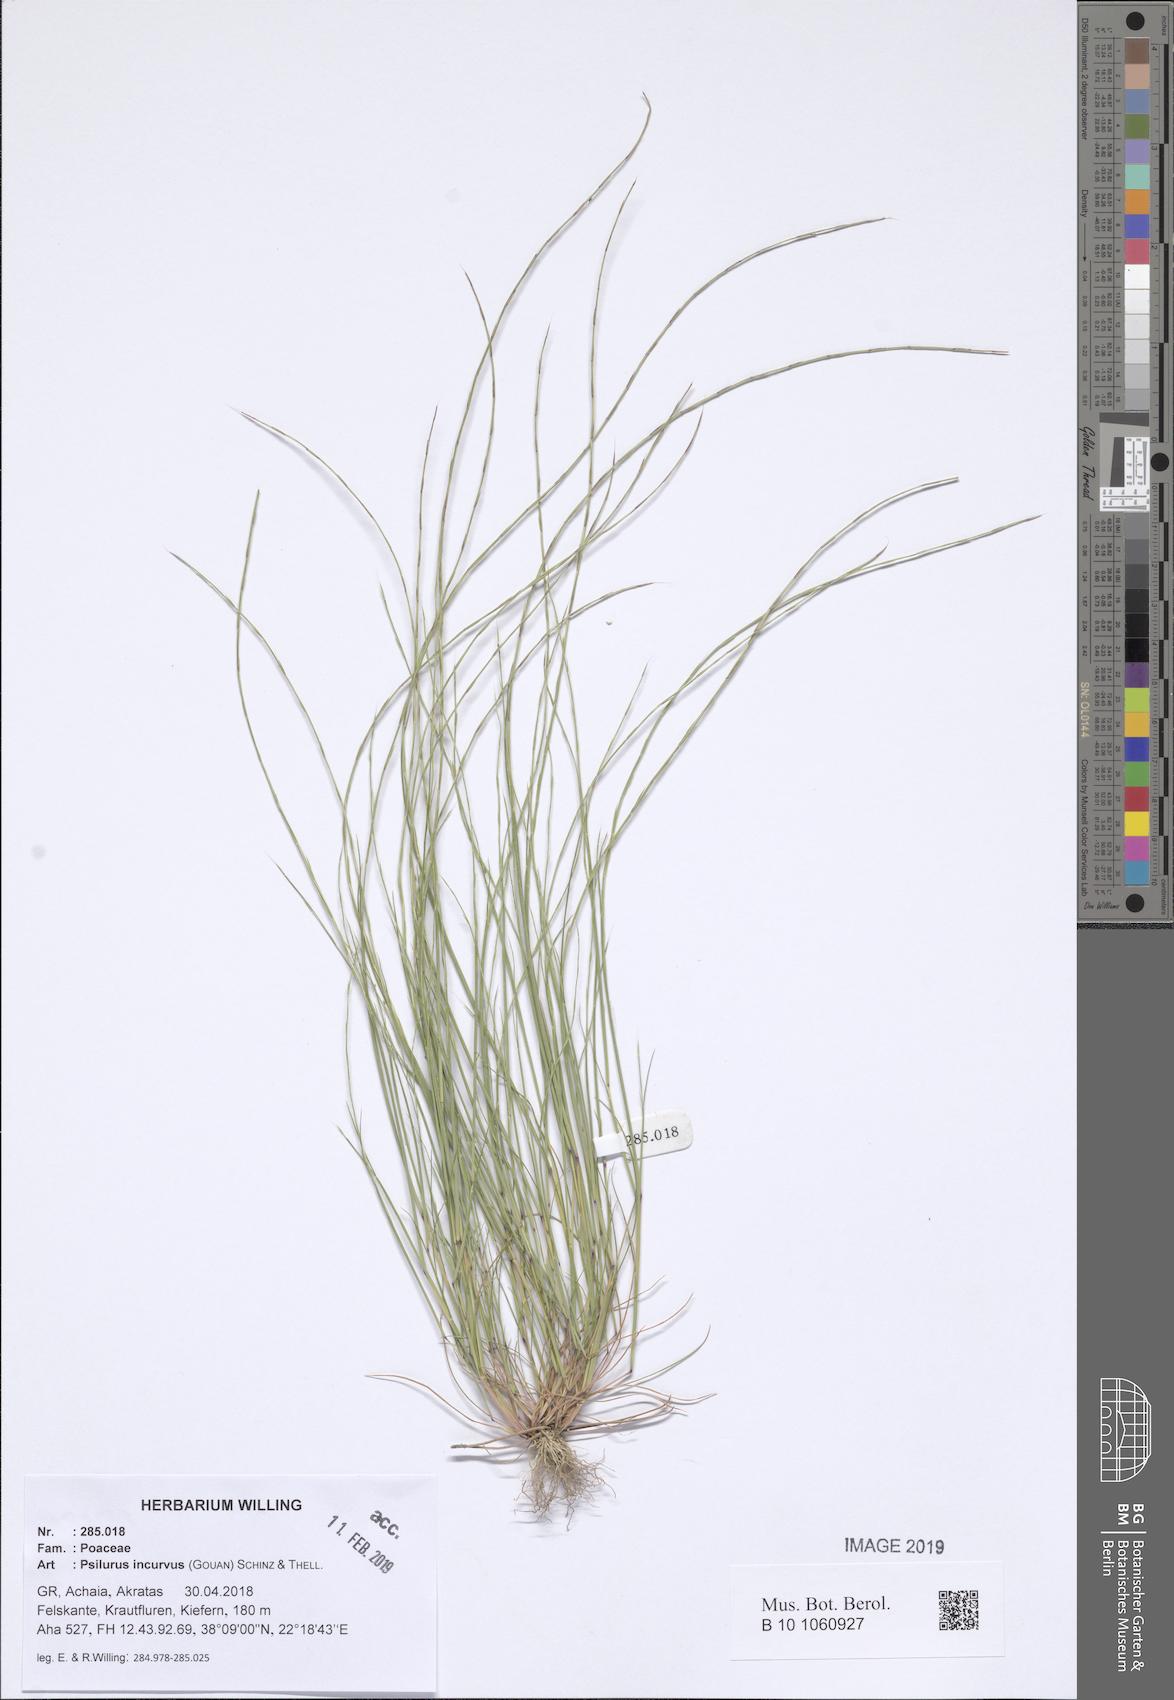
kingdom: Plantae
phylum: Tracheophyta
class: Liliopsida
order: Poales
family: Poaceae
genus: Festuca
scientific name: Festuca incurva
